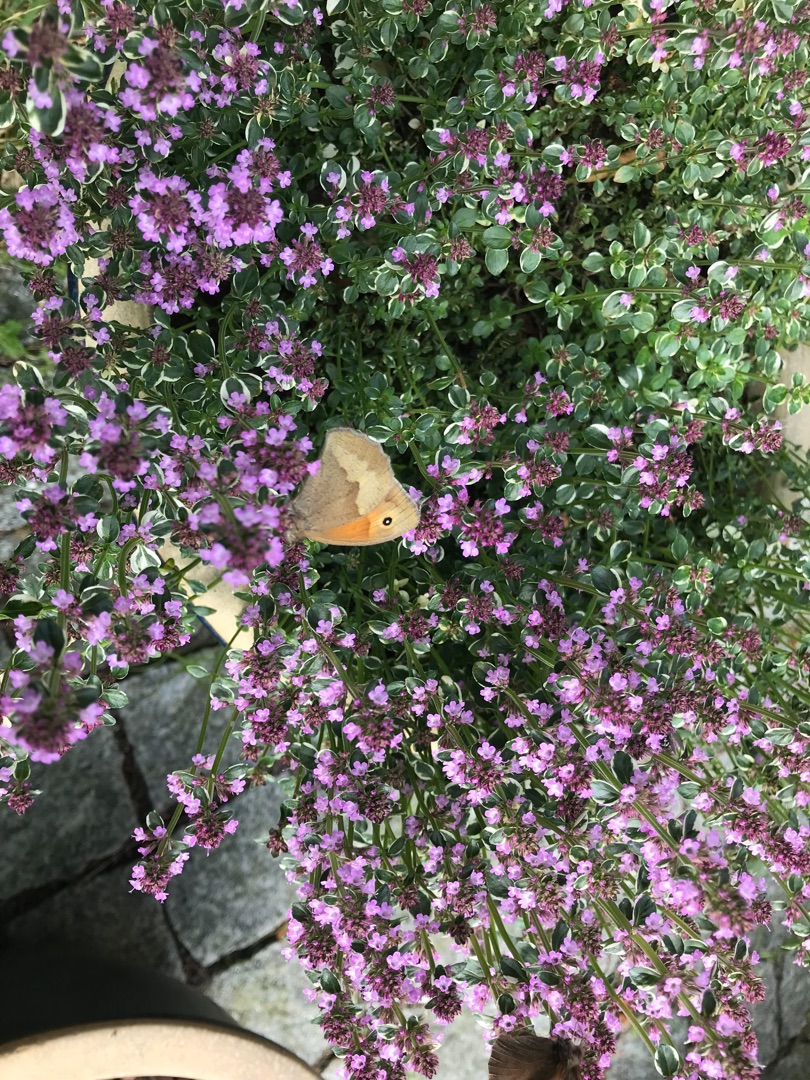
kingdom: Animalia
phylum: Arthropoda
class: Insecta
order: Lepidoptera
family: Nymphalidae
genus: Maniola
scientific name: Maniola jurtina
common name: Græsrandøje
